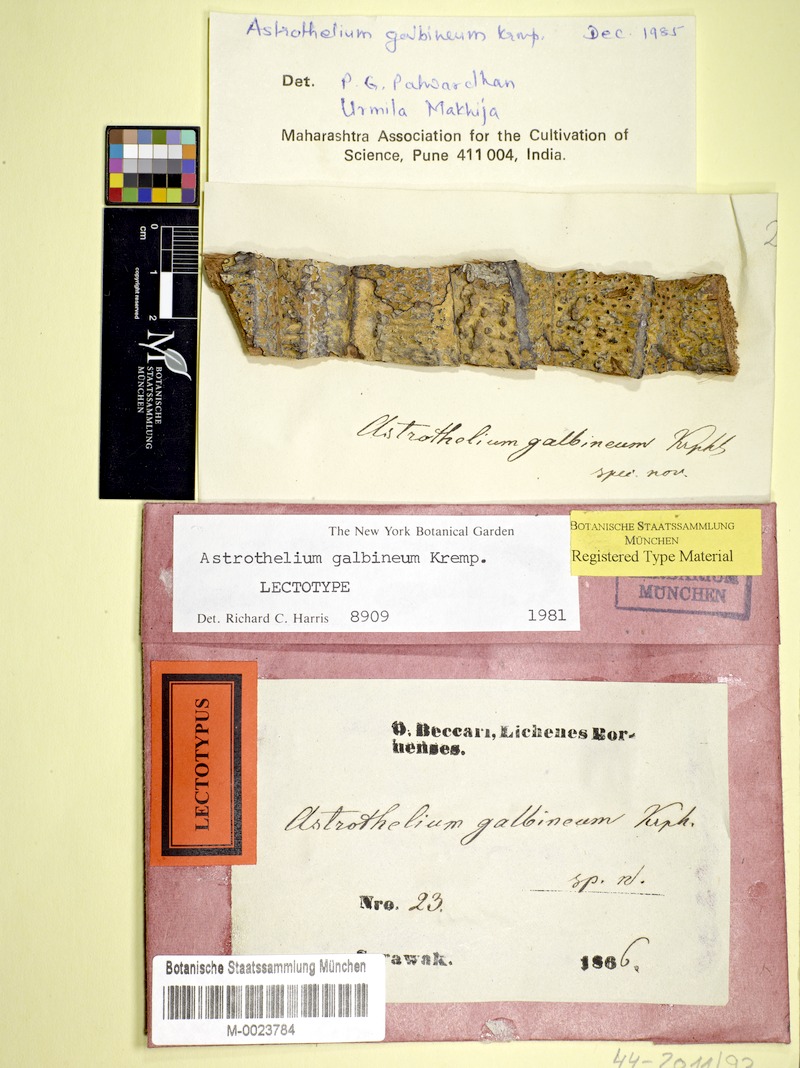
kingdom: Fungi
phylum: Ascomycota
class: Dothideomycetes
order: Trypetheliales
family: Trypetheliaceae
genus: Astrothelium
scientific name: Astrothelium galbineum
